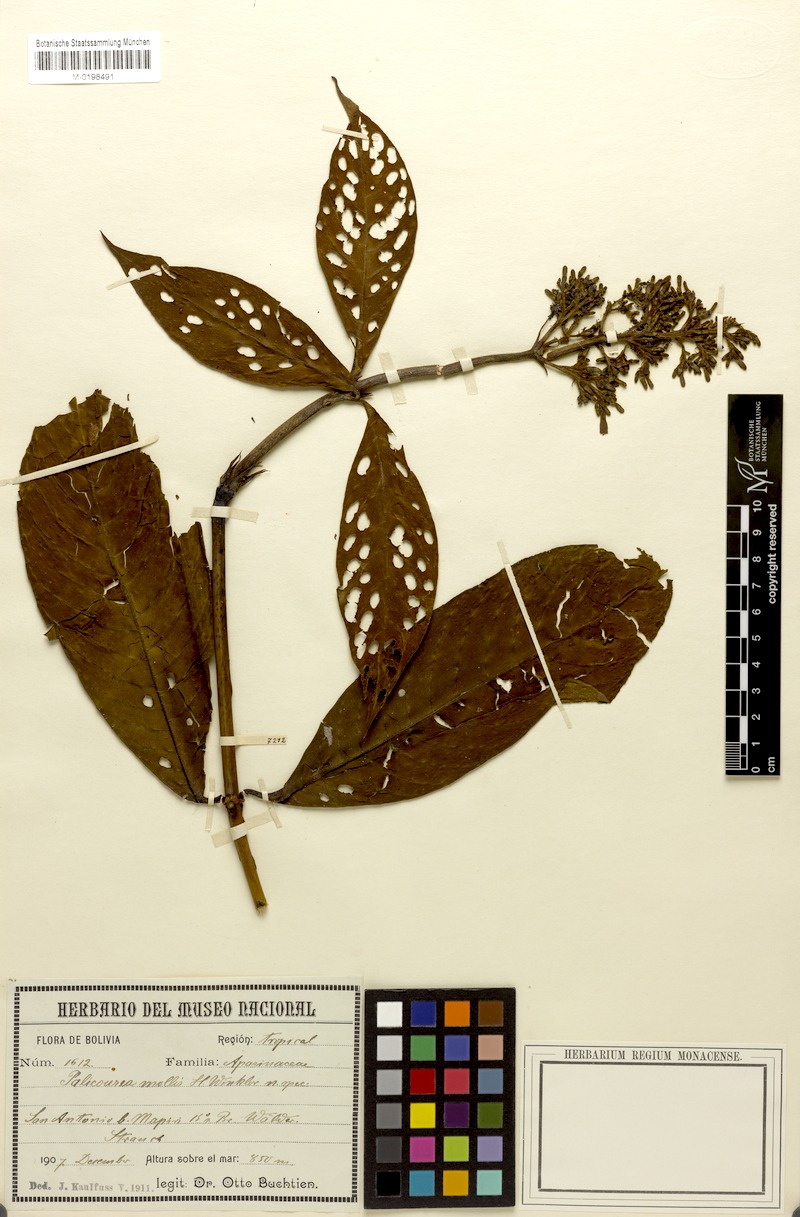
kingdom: Plantae
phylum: Tracheophyta
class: Magnoliopsida
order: Gentianales
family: Rubiaceae
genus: Palicourea
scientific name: Palicourea triphylla
